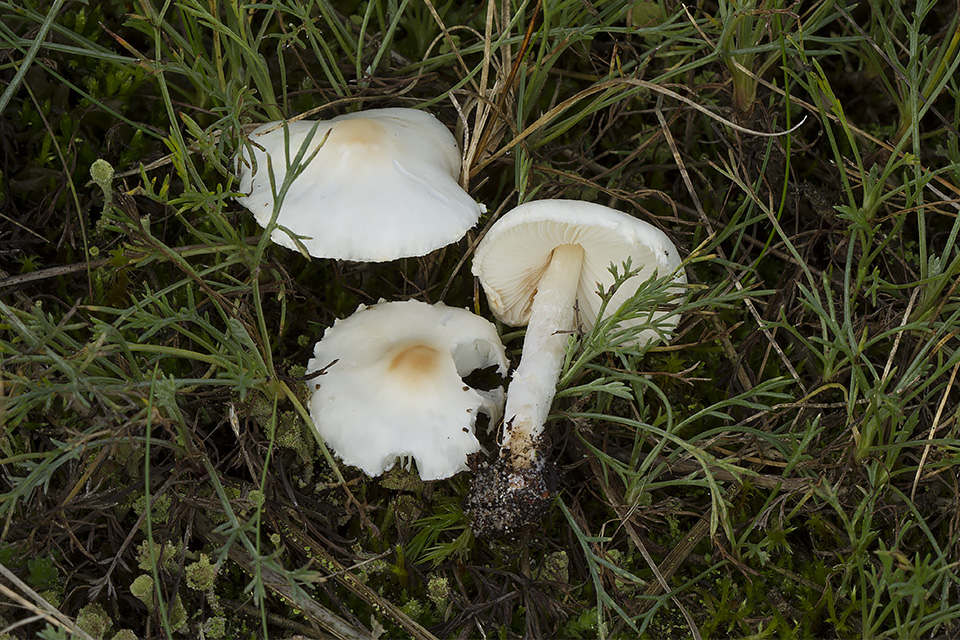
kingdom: Fungi
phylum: Basidiomycota
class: Agaricomycetes
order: Agaricales
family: Agaricaceae
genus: Lepiota
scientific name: Lepiota erminea
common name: hvid parasolhat
